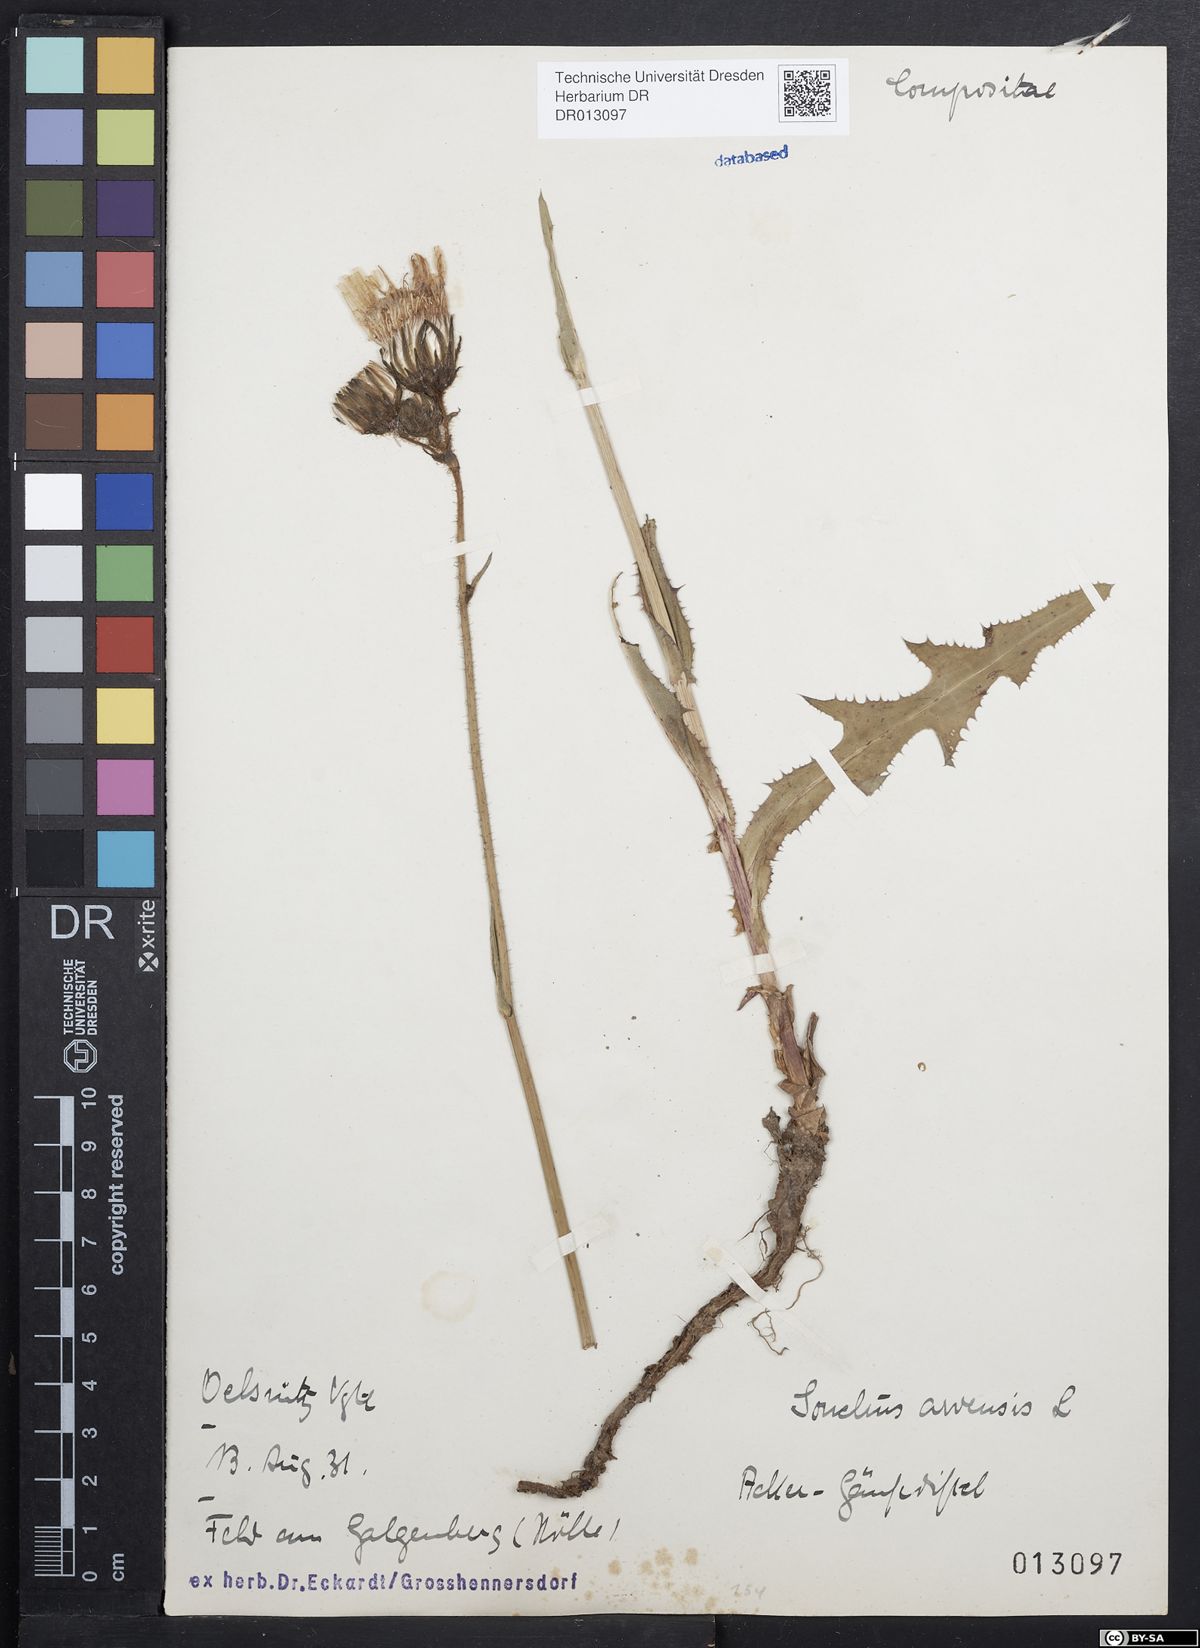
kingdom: Plantae
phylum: Tracheophyta
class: Magnoliopsida
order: Asterales
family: Asteraceae
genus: Sonchus
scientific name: Sonchus arvensis
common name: Perennial sow-thistle
